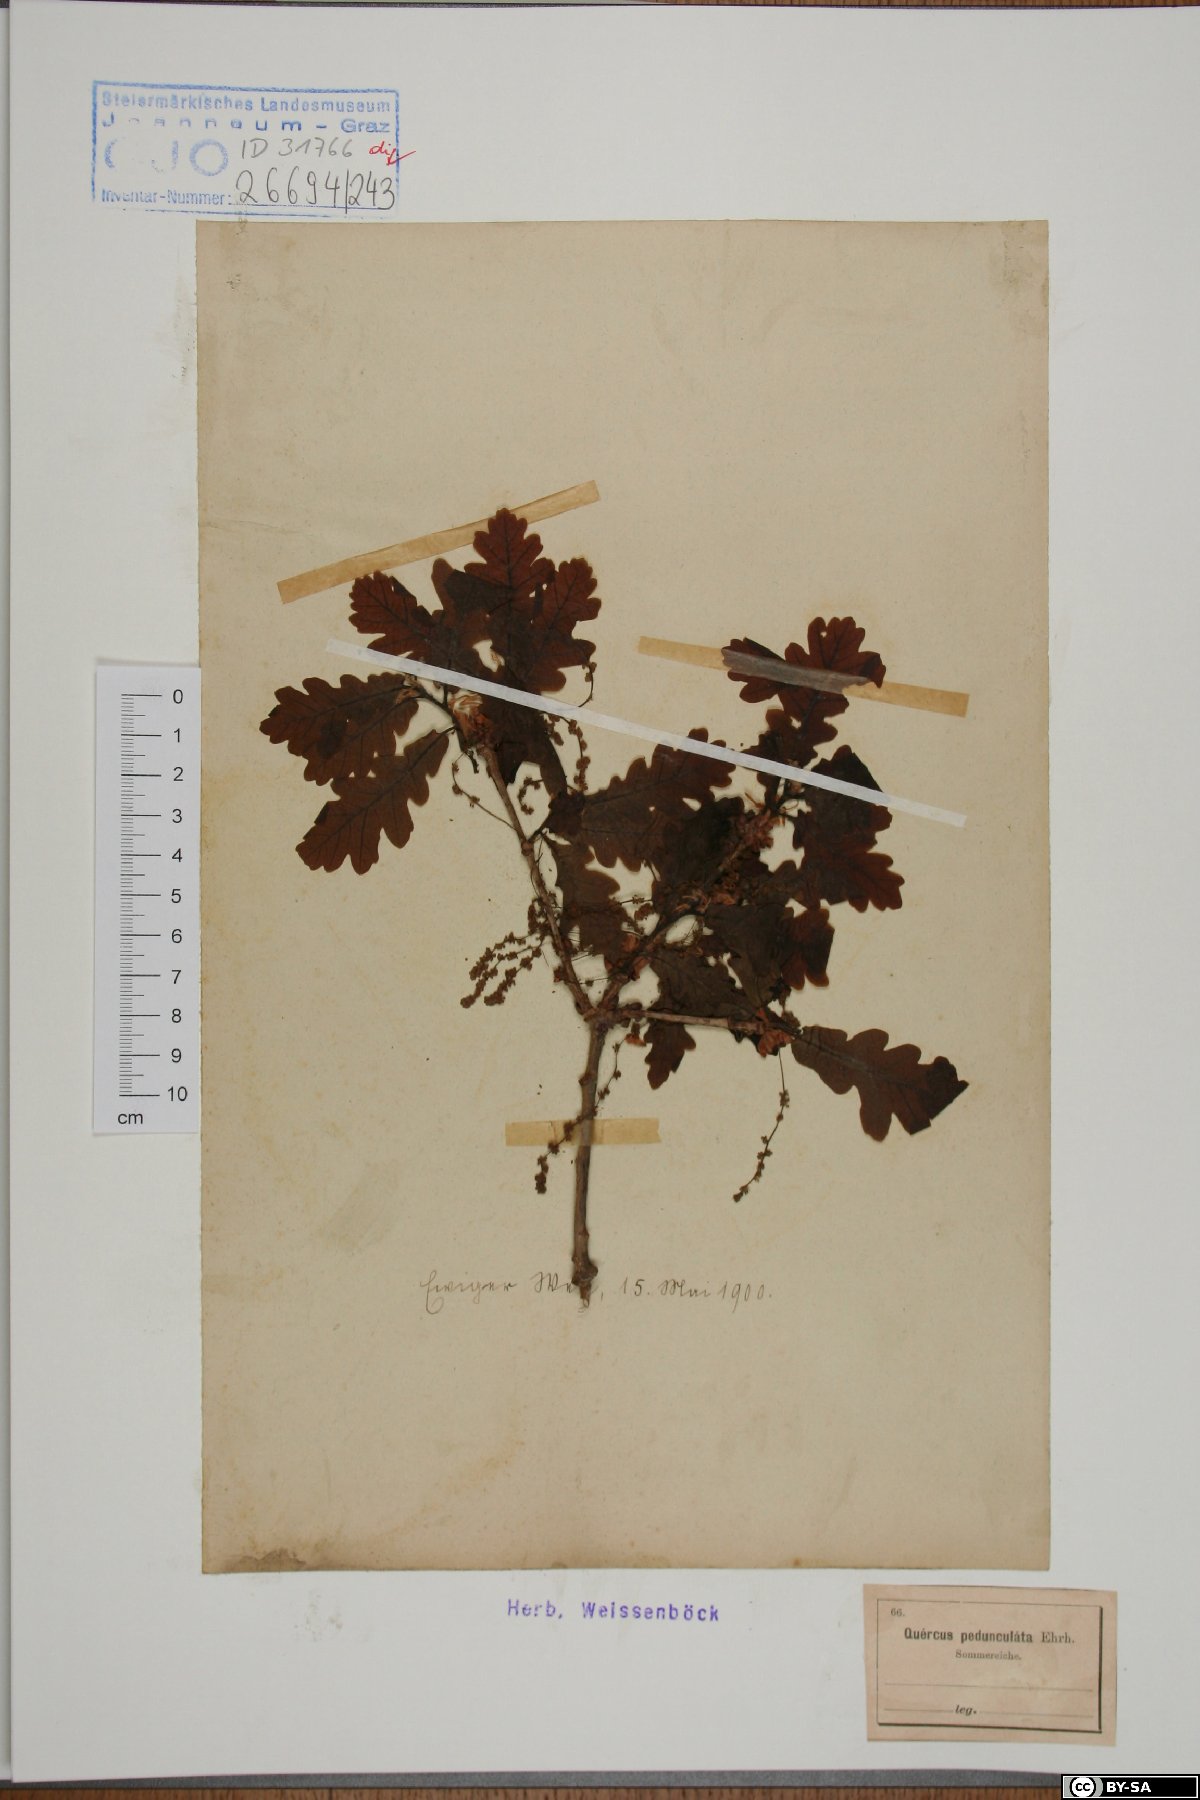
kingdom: Plantae
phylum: Tracheophyta
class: Magnoliopsida
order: Fagales
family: Fagaceae
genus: Quercus
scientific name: Quercus robur
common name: Pedunculate oak
